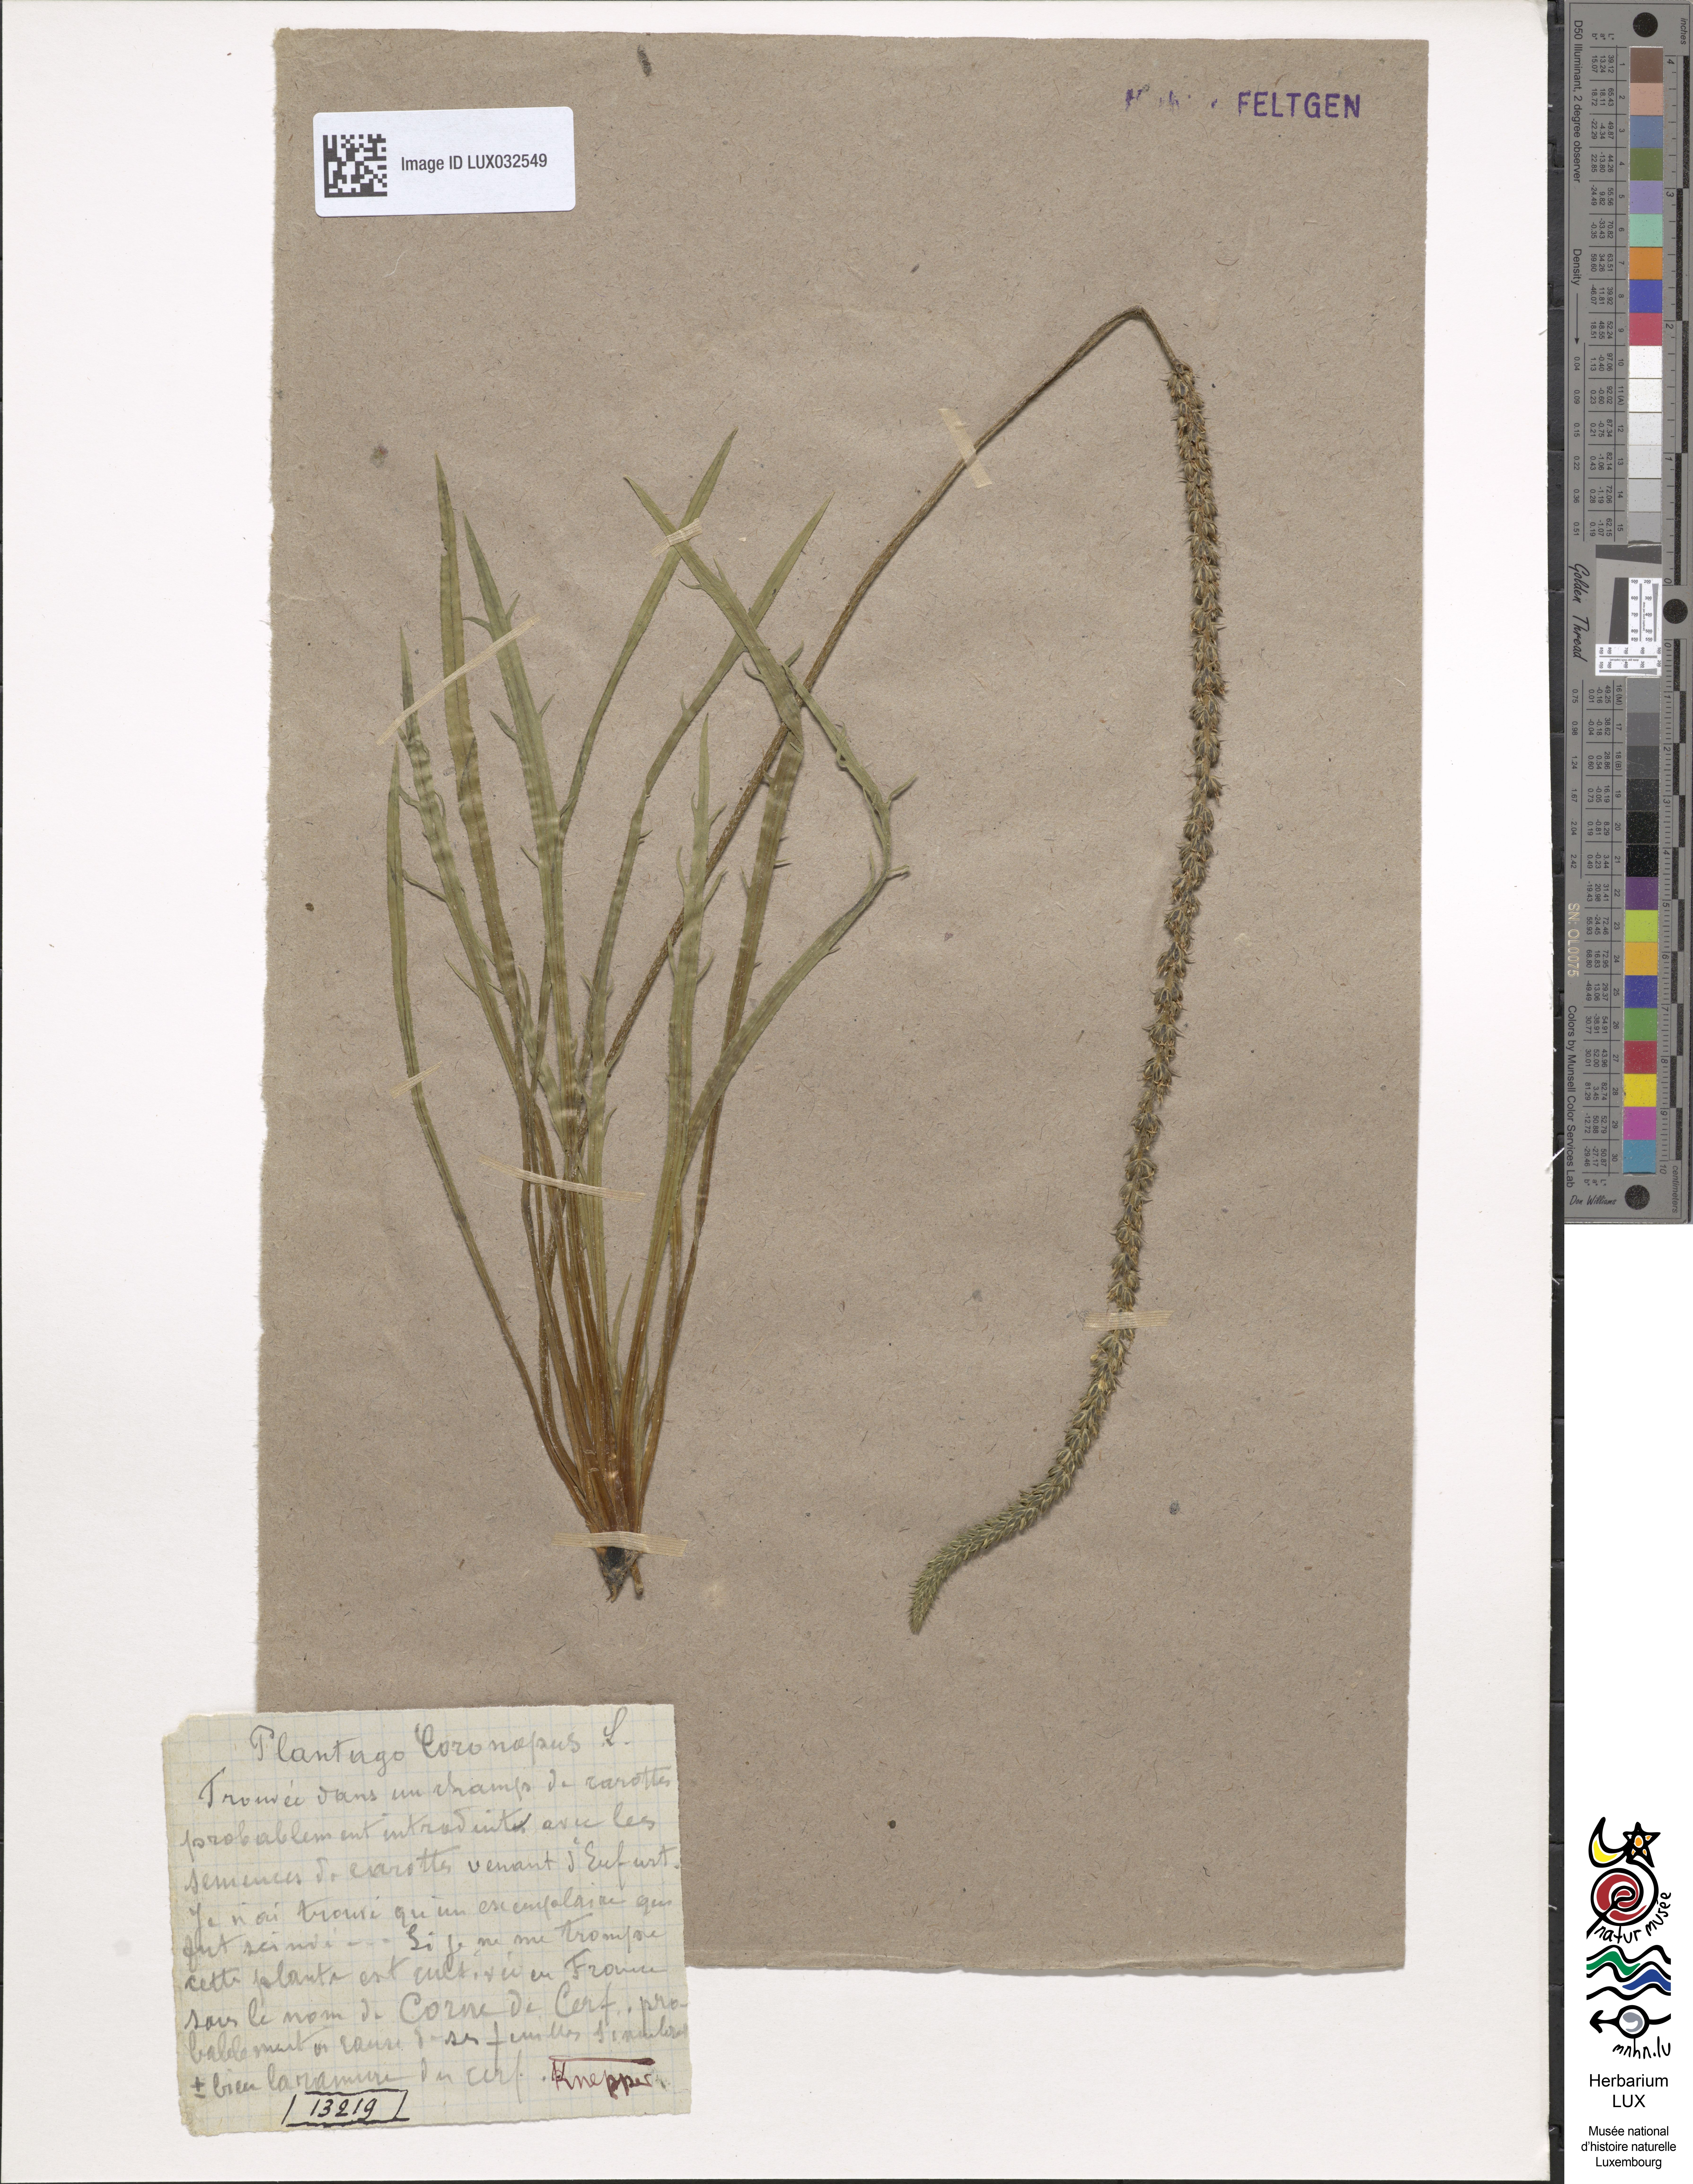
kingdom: Plantae
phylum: Tracheophyta
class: Magnoliopsida
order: Lamiales
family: Plantaginaceae
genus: Plantago
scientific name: Plantago coronopus
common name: Buck's-horn plantain
